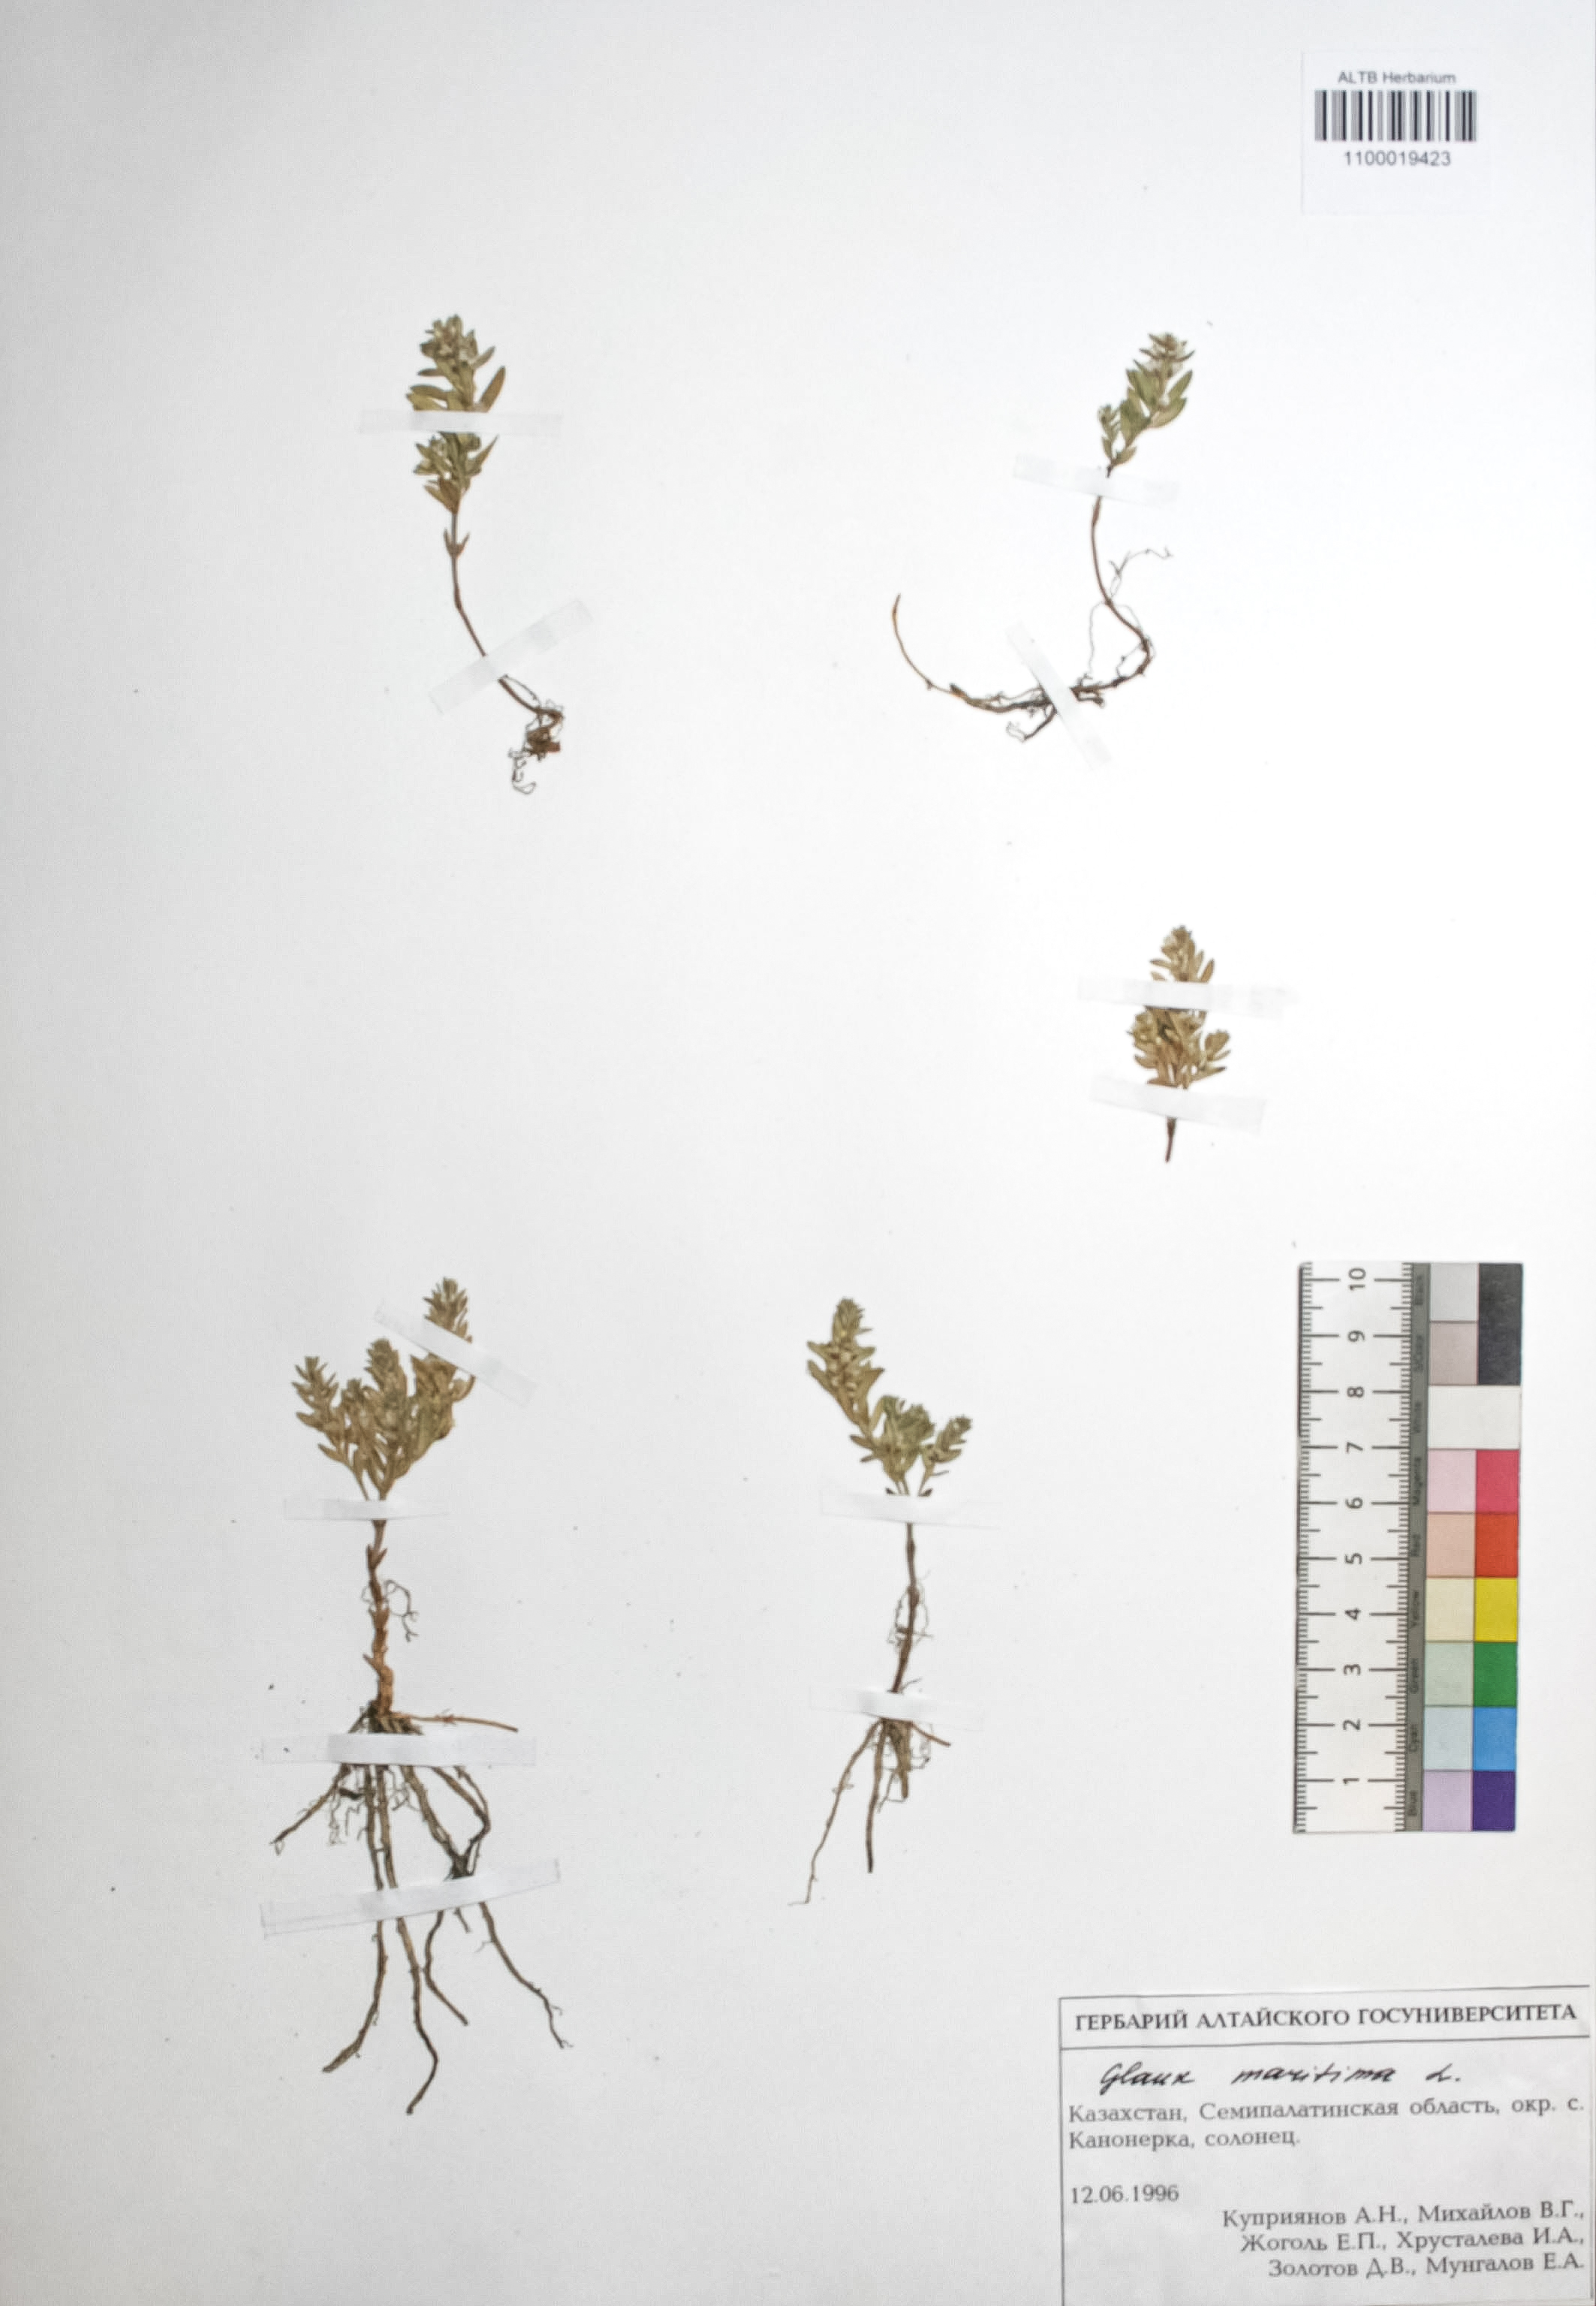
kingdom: Plantae
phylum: Tracheophyta
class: Magnoliopsida
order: Ericales
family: Primulaceae
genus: Lysimachia
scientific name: Lysimachia maritima
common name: Sea milkwort
